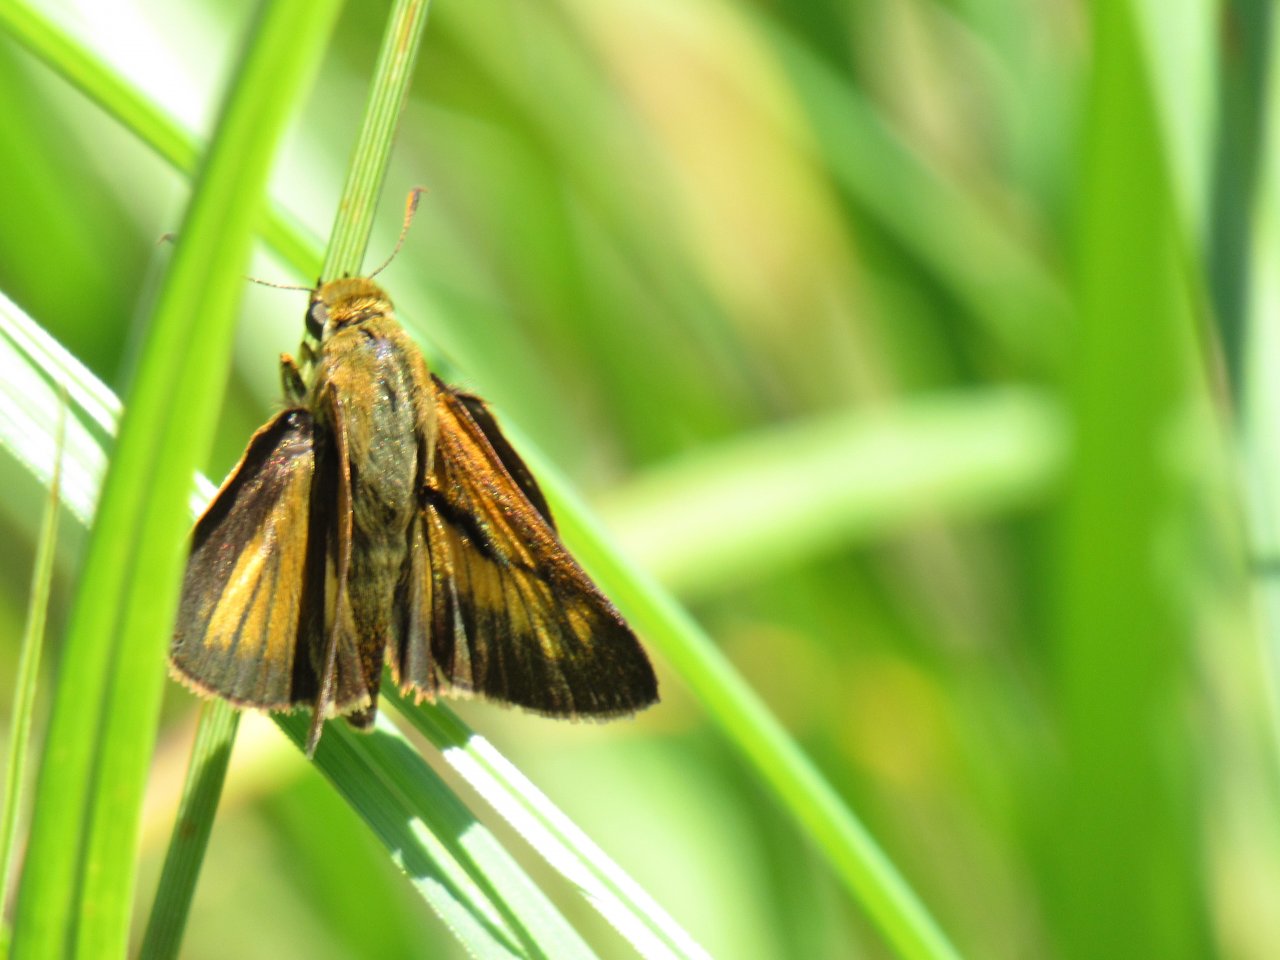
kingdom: Animalia
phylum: Arthropoda
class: Insecta
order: Lepidoptera
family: Hesperiidae
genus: Euphyes
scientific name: Euphyes dion
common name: Dion Skipper
